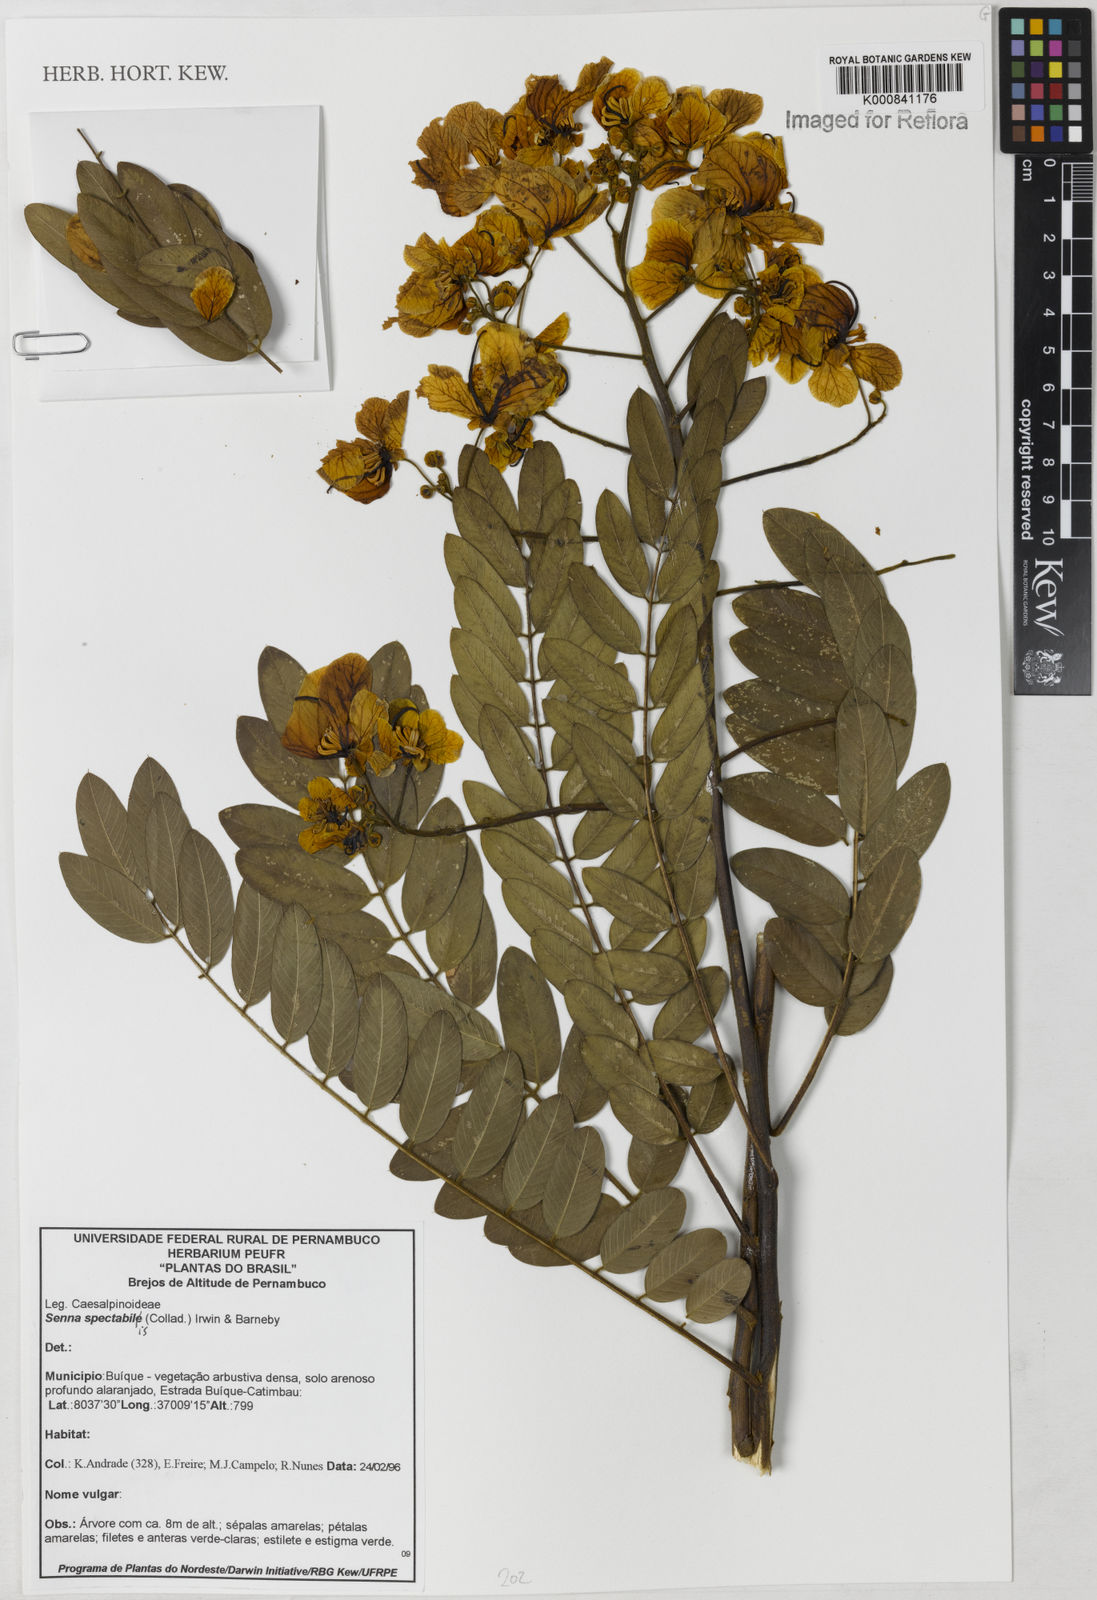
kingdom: Plantae
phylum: Tracheophyta
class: Magnoliopsida
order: Fabales
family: Fabaceae
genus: Senna
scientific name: Senna spectabilis
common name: Casia amarilla
